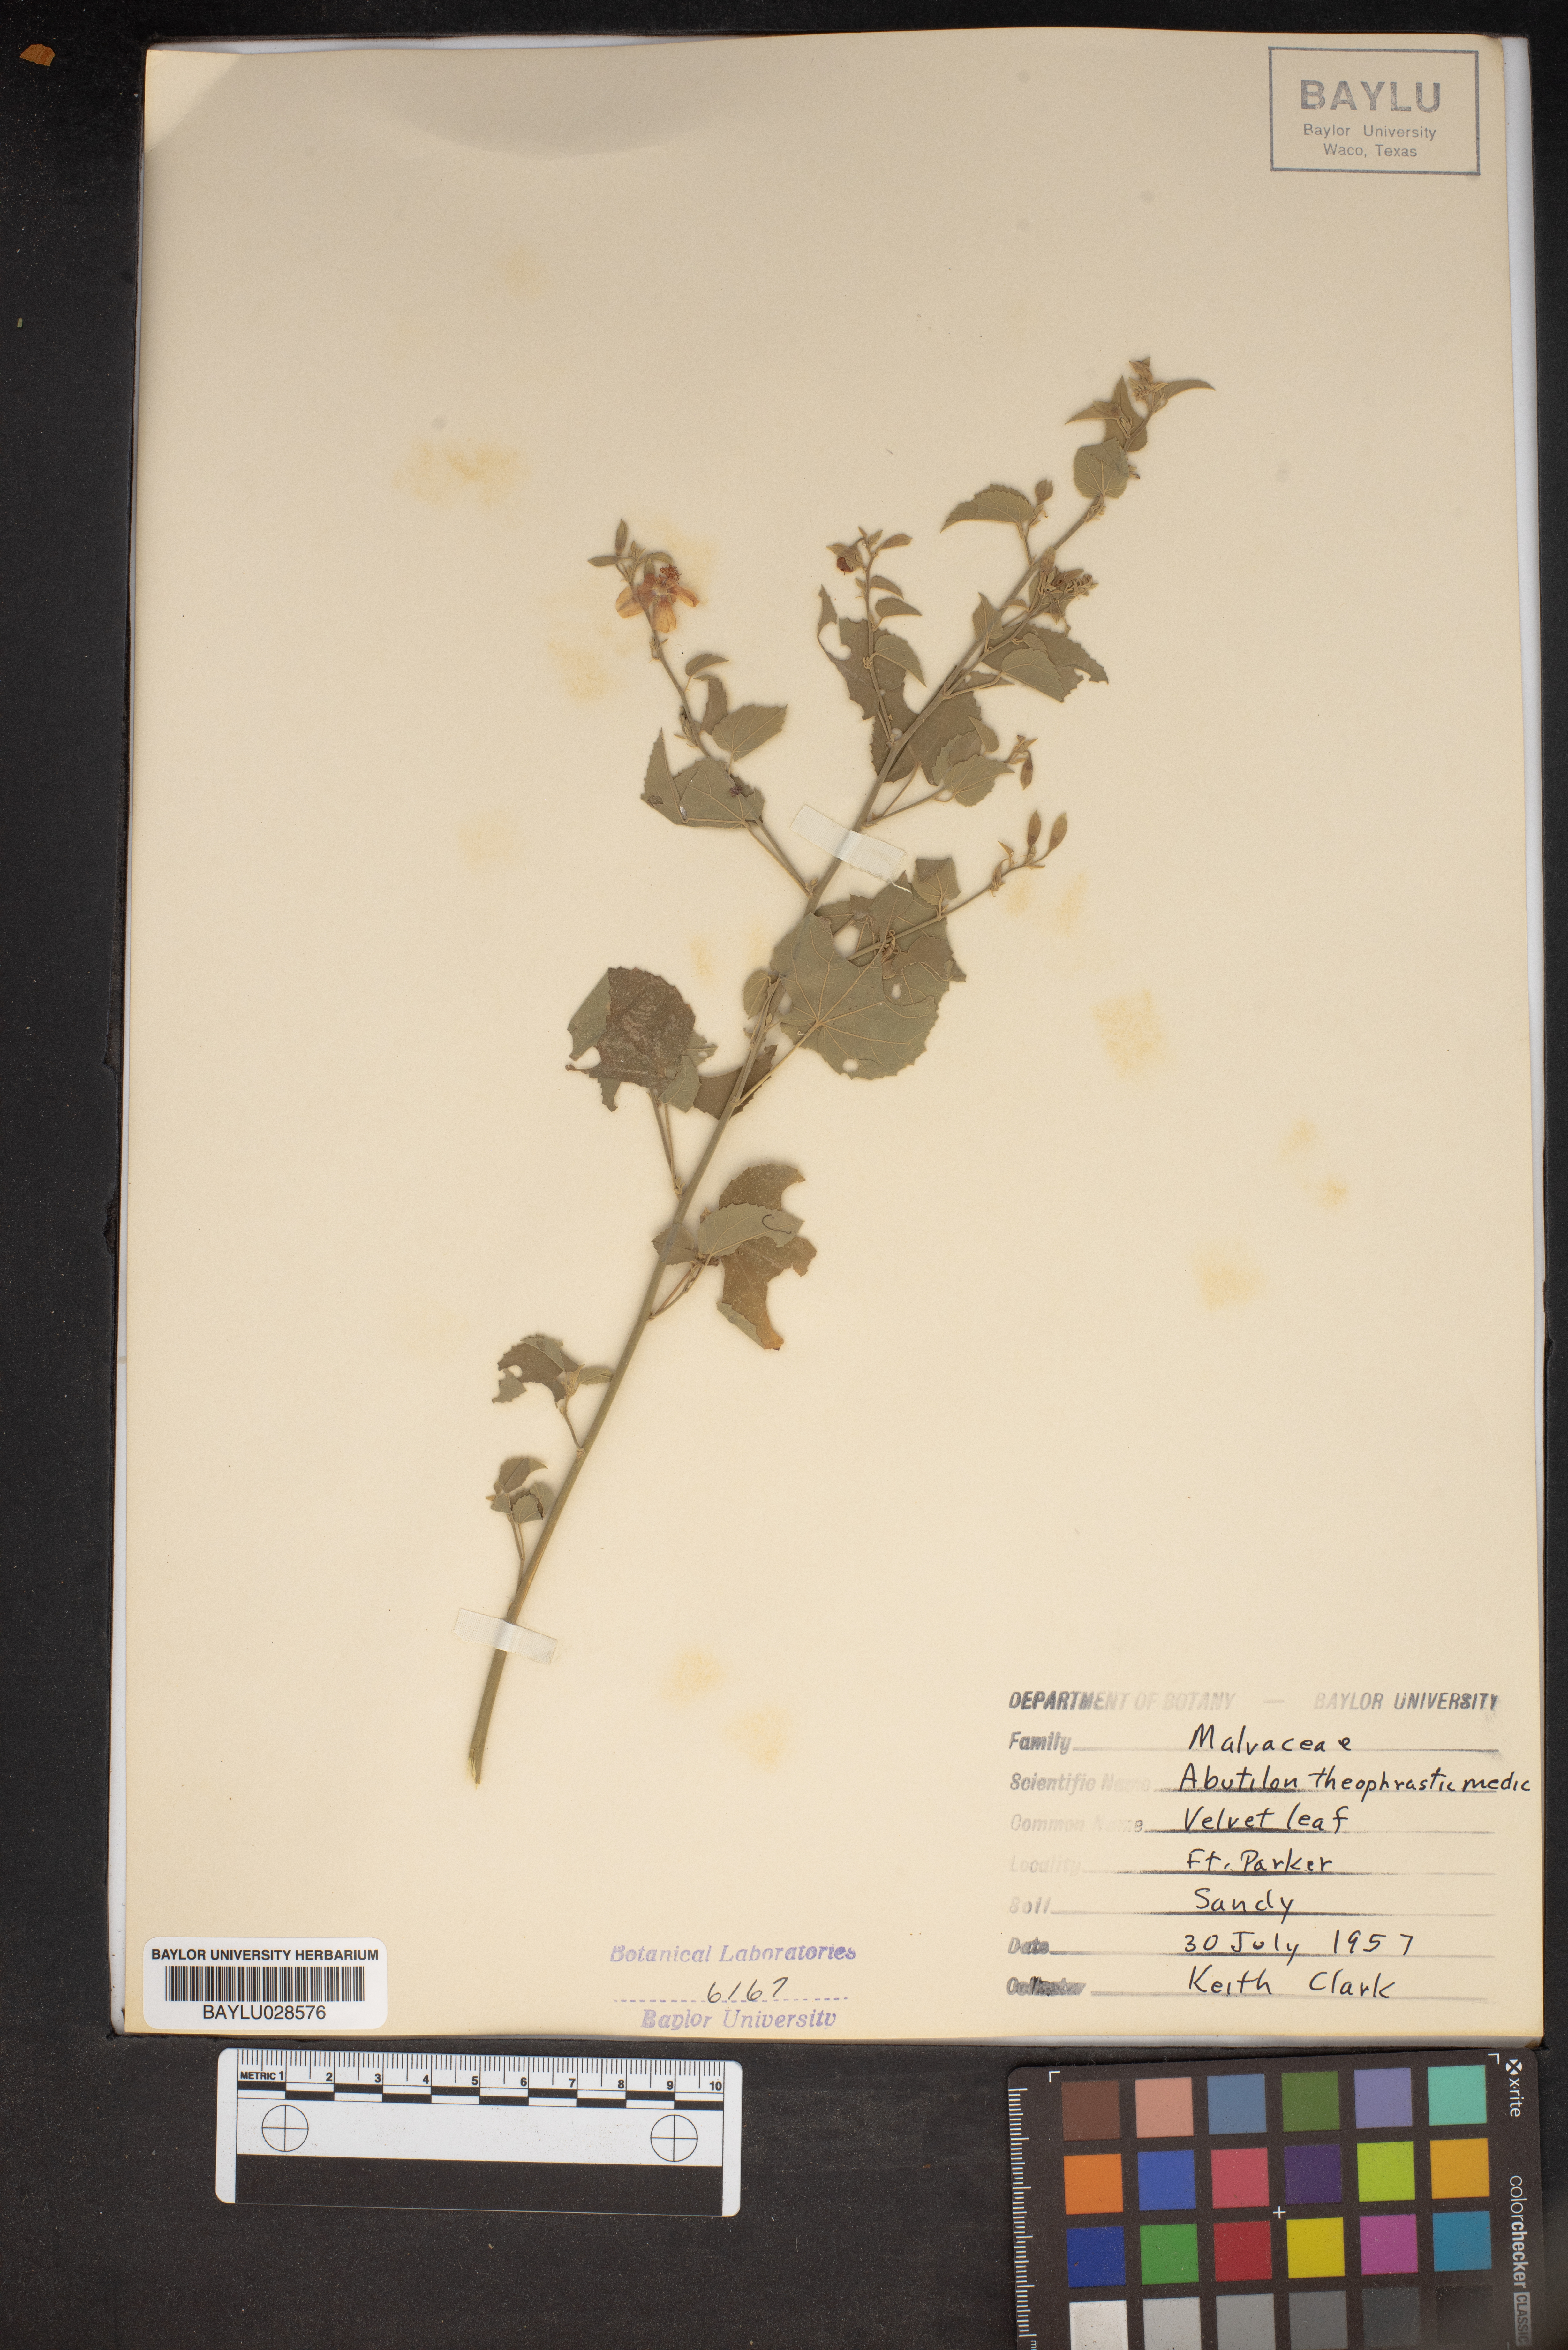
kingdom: Plantae
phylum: Tracheophyta
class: Magnoliopsida
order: Malvales
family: Malvaceae
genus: Abutilon
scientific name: Abutilon theophrasti
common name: Velvetleaf
